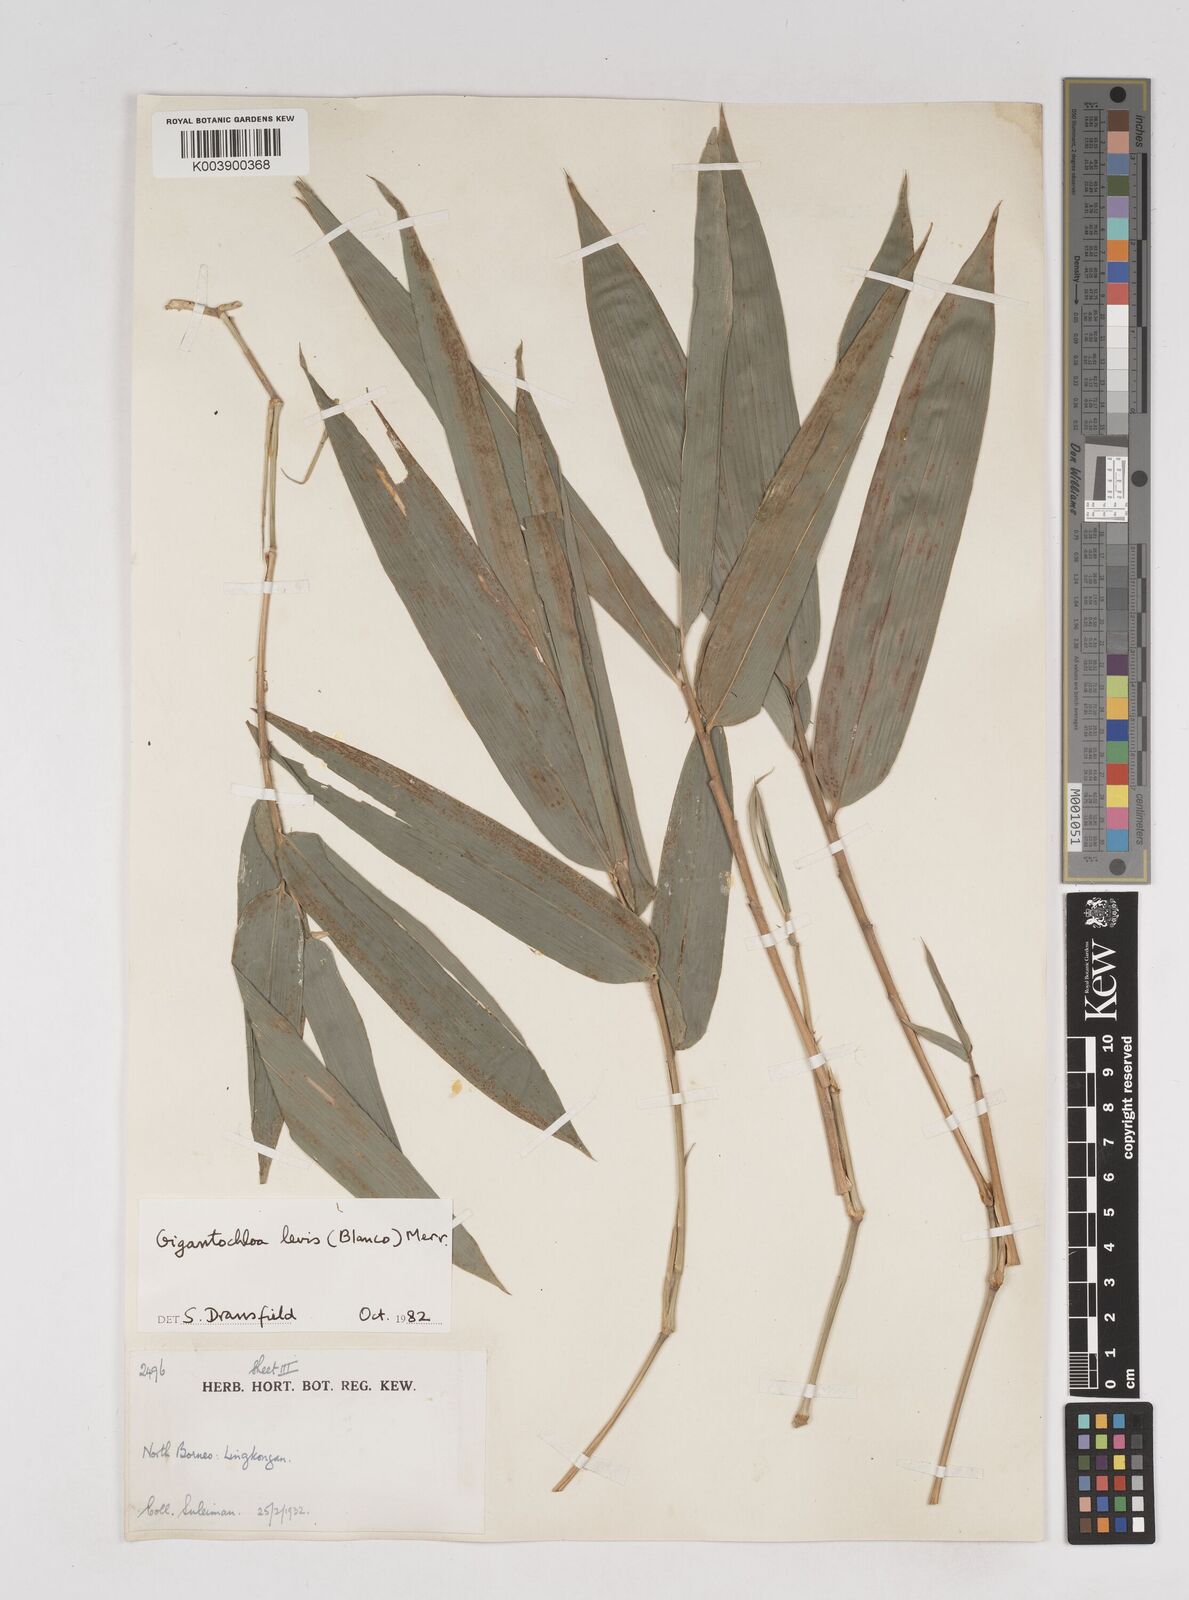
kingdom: Plantae
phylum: Tracheophyta
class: Liliopsida
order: Poales
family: Poaceae
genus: Gigantochloa
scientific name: Gigantochloa
